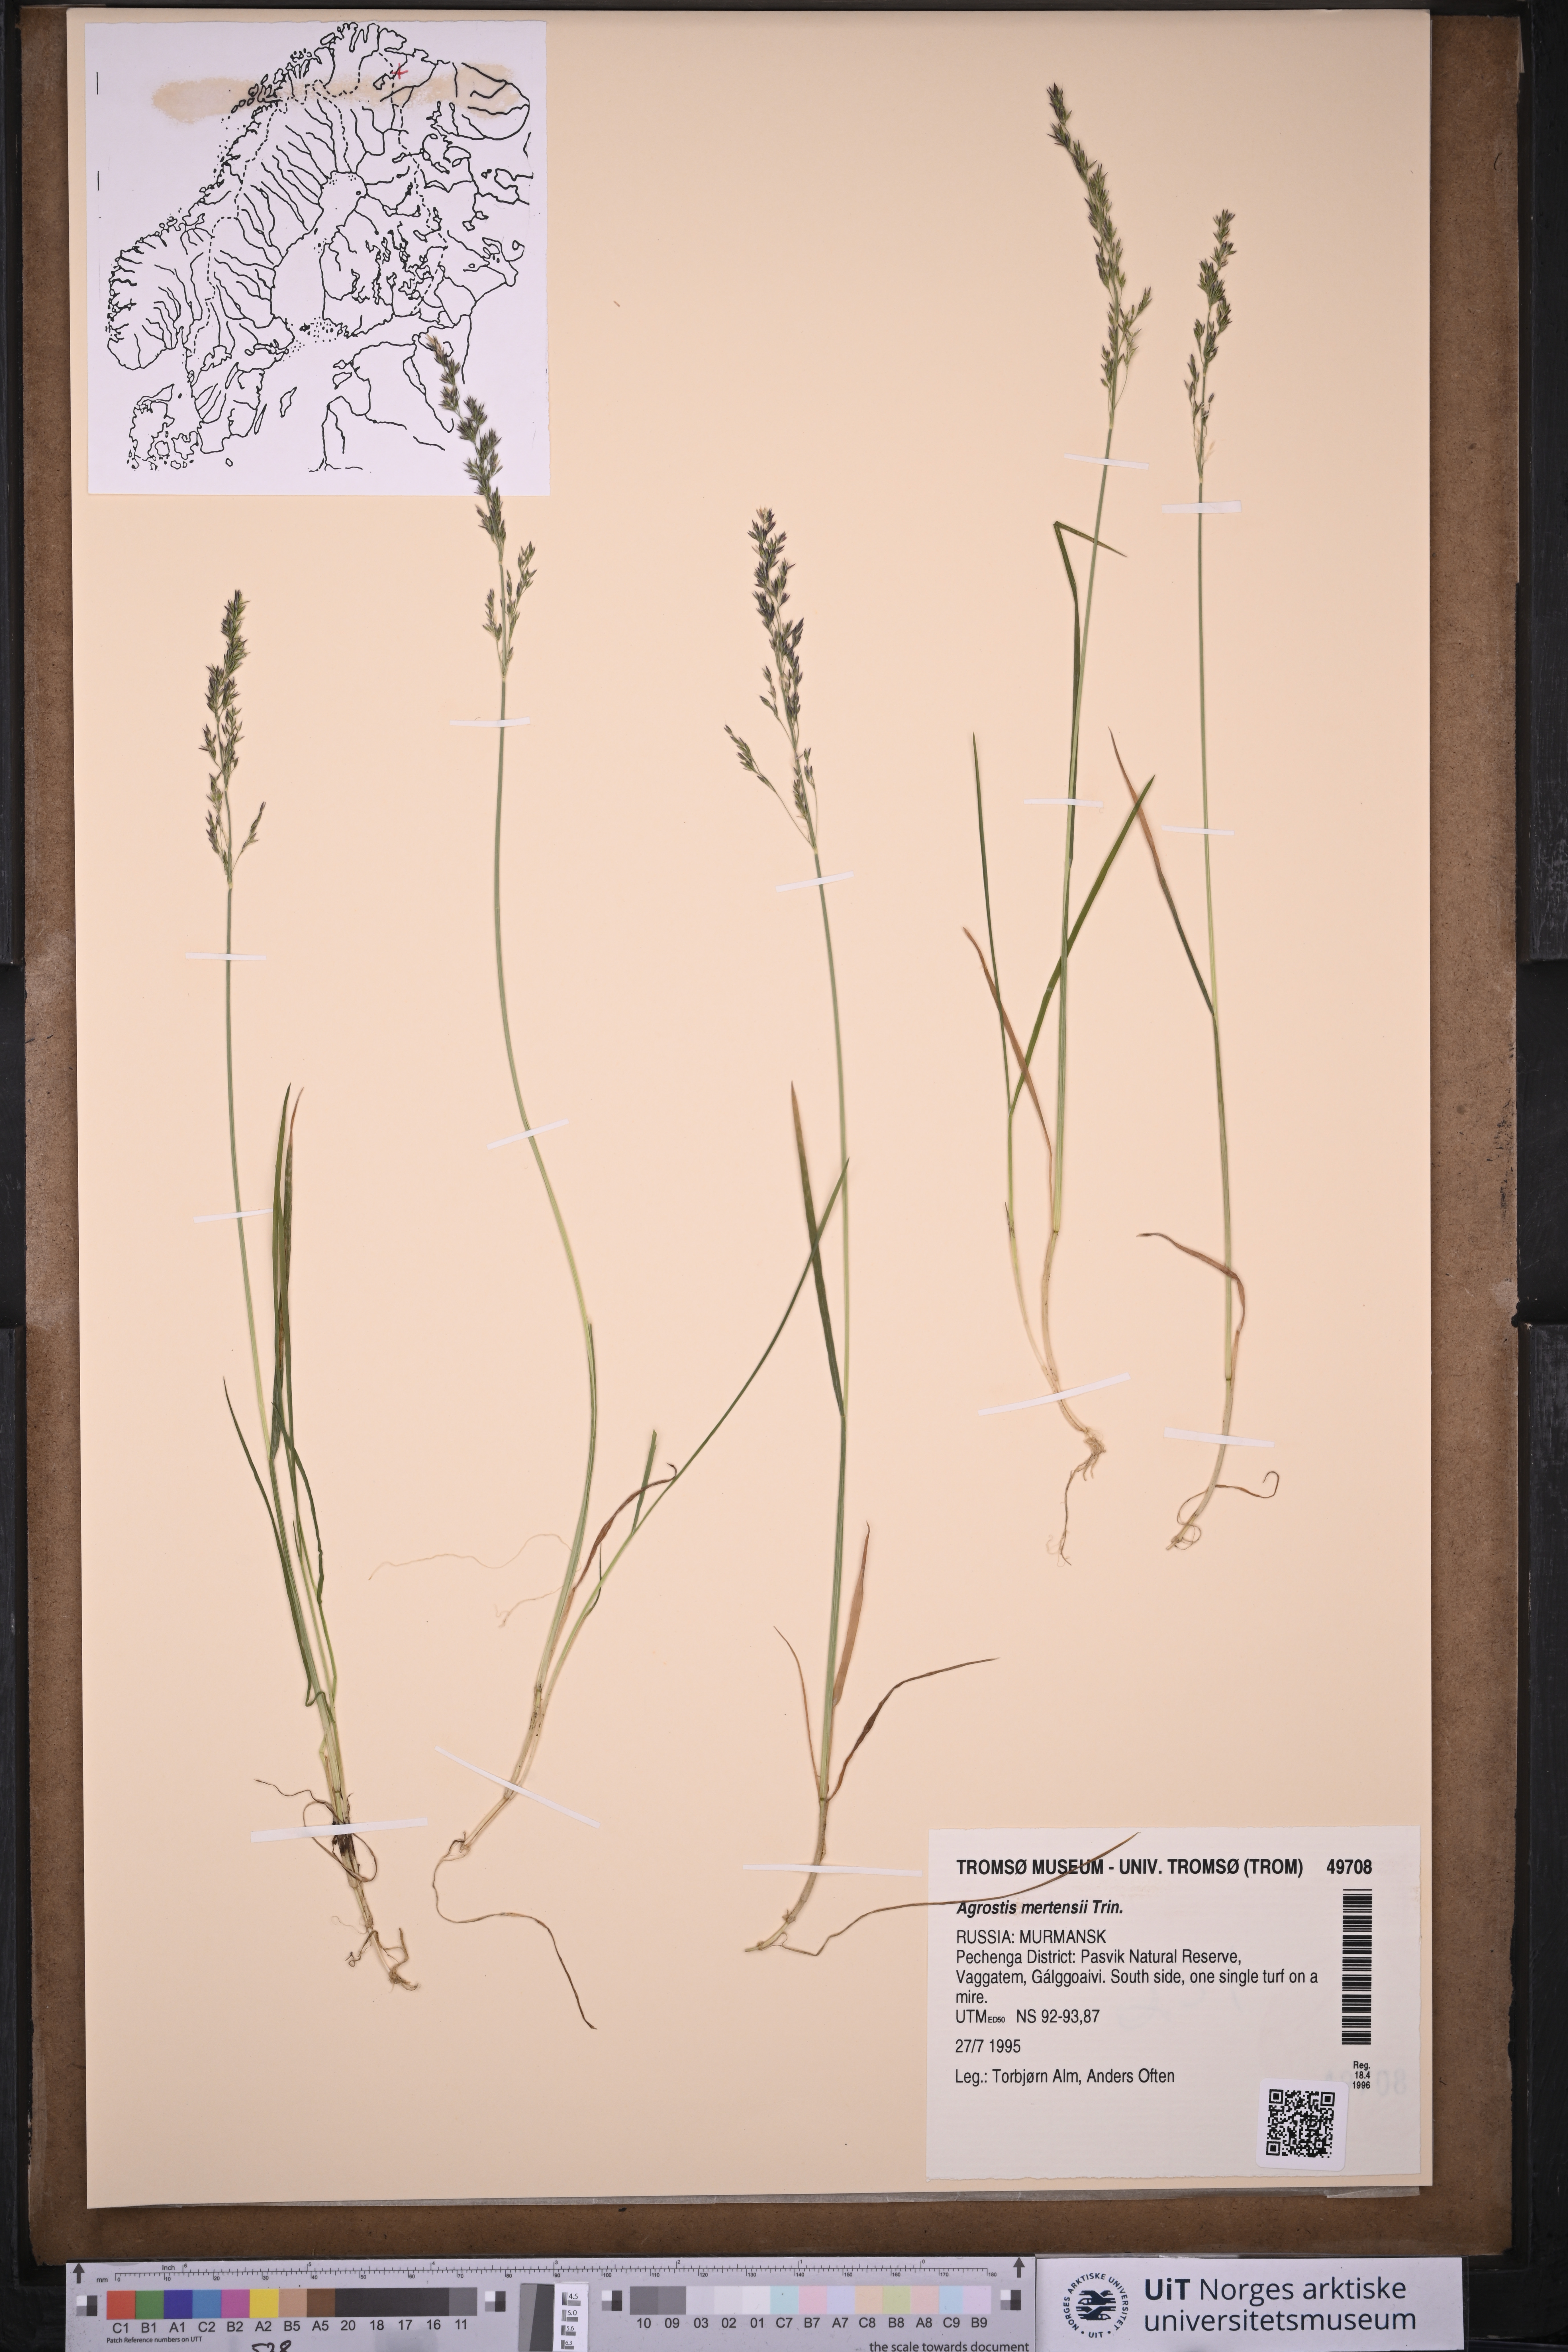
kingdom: Plantae
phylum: Tracheophyta
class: Liliopsida
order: Poales
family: Poaceae
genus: Agrostis
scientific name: Agrostis mertensii
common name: Northern bent
